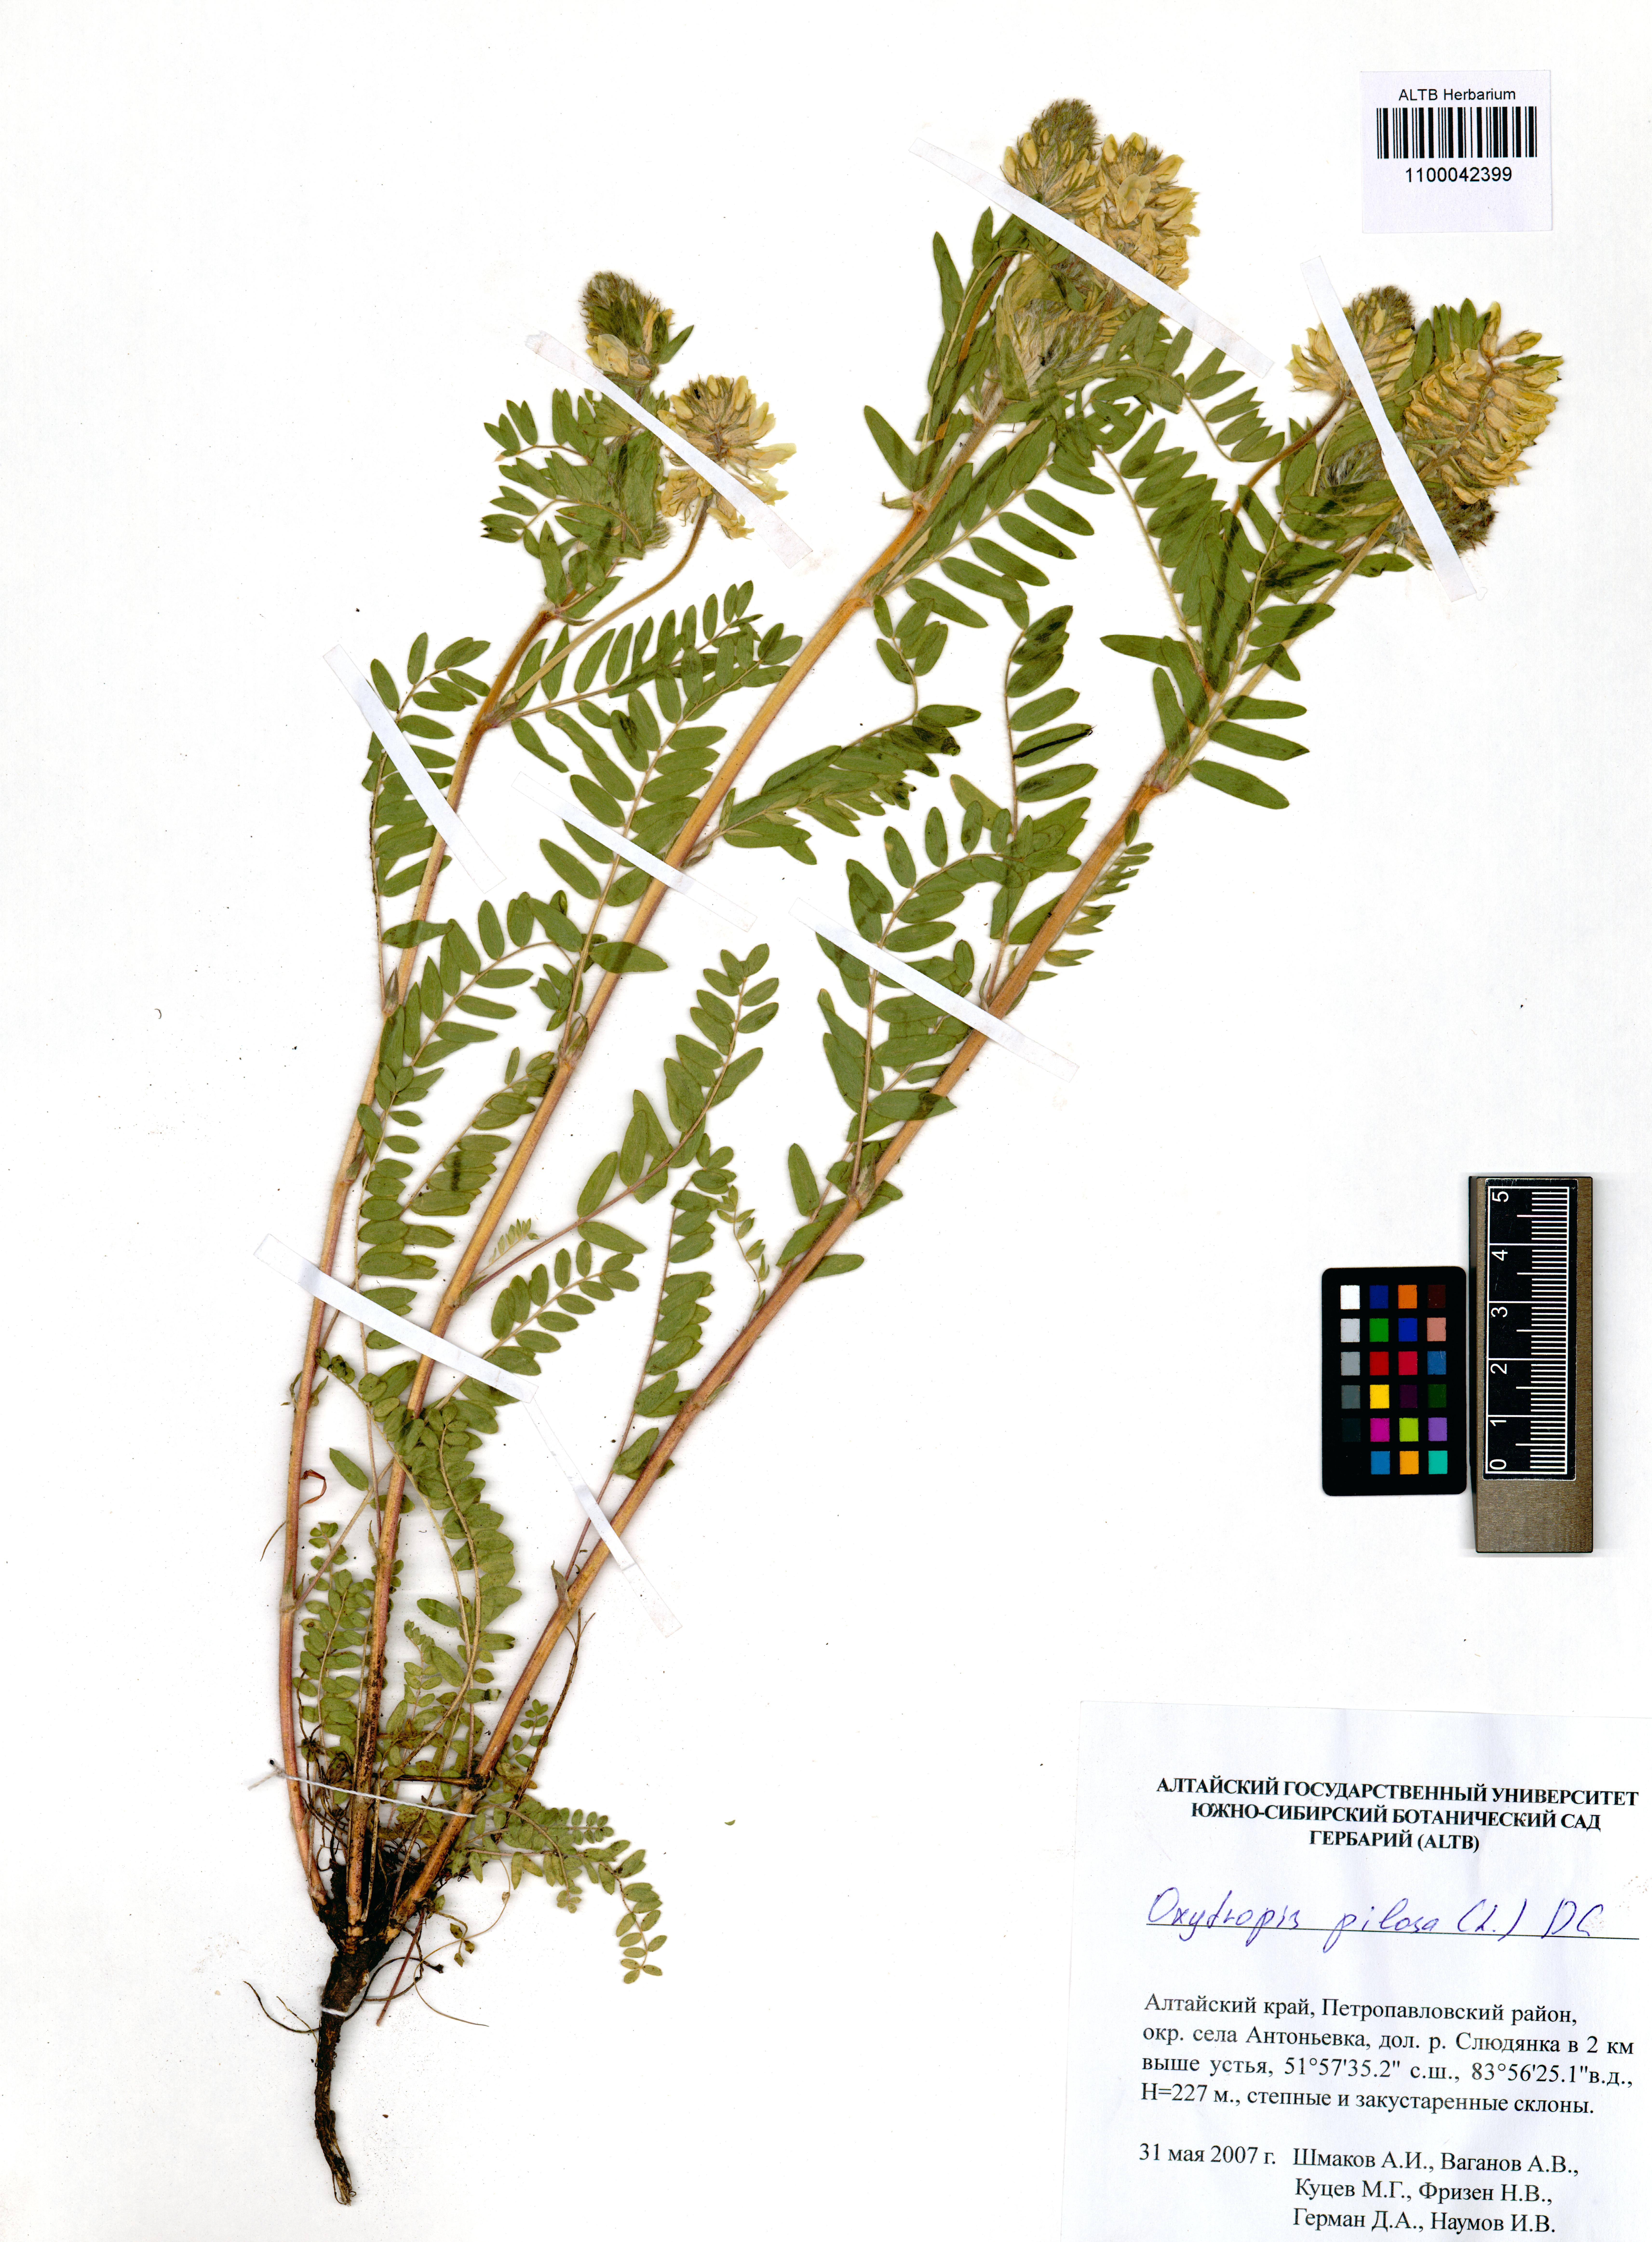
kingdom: Plantae
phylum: Tracheophyta
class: Magnoliopsida
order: Fabales
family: Fabaceae
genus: Oxytropis
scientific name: Oxytropis pilosa
